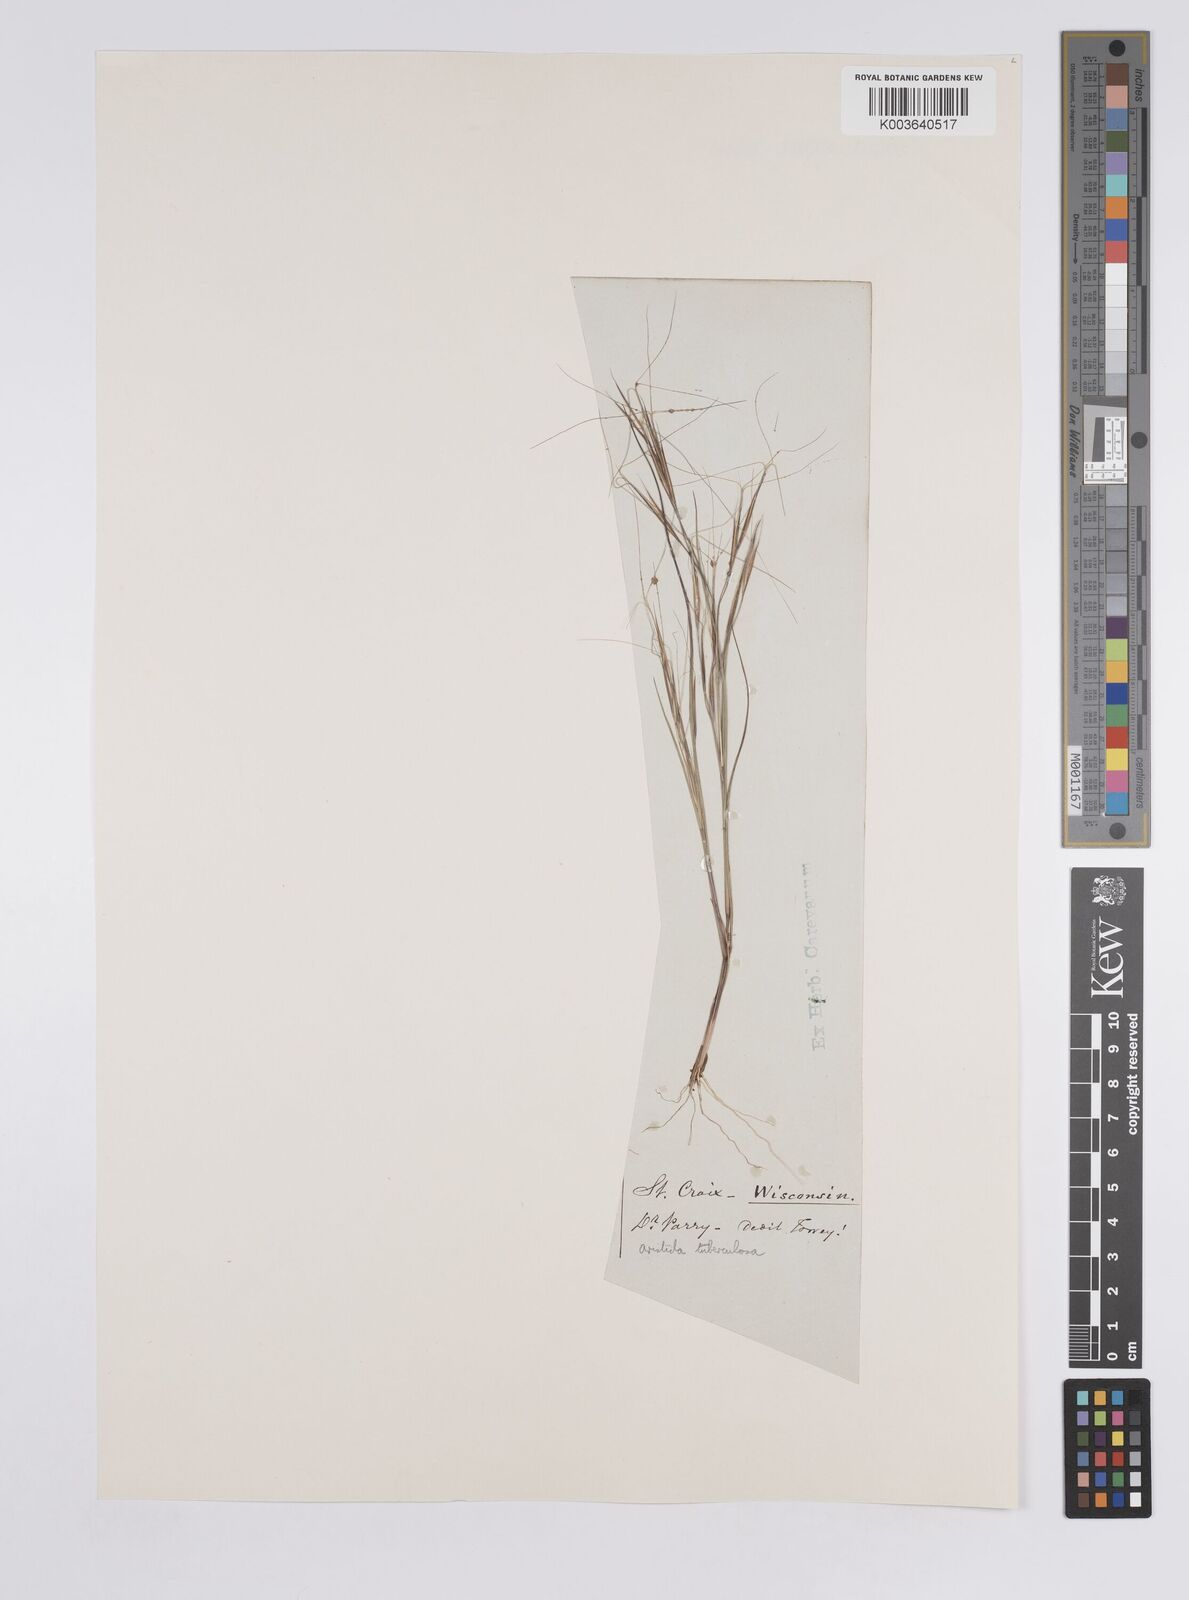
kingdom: Plantae
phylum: Tracheophyta
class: Liliopsida
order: Poales
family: Poaceae
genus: Aristida
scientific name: Aristida tuberculosa
